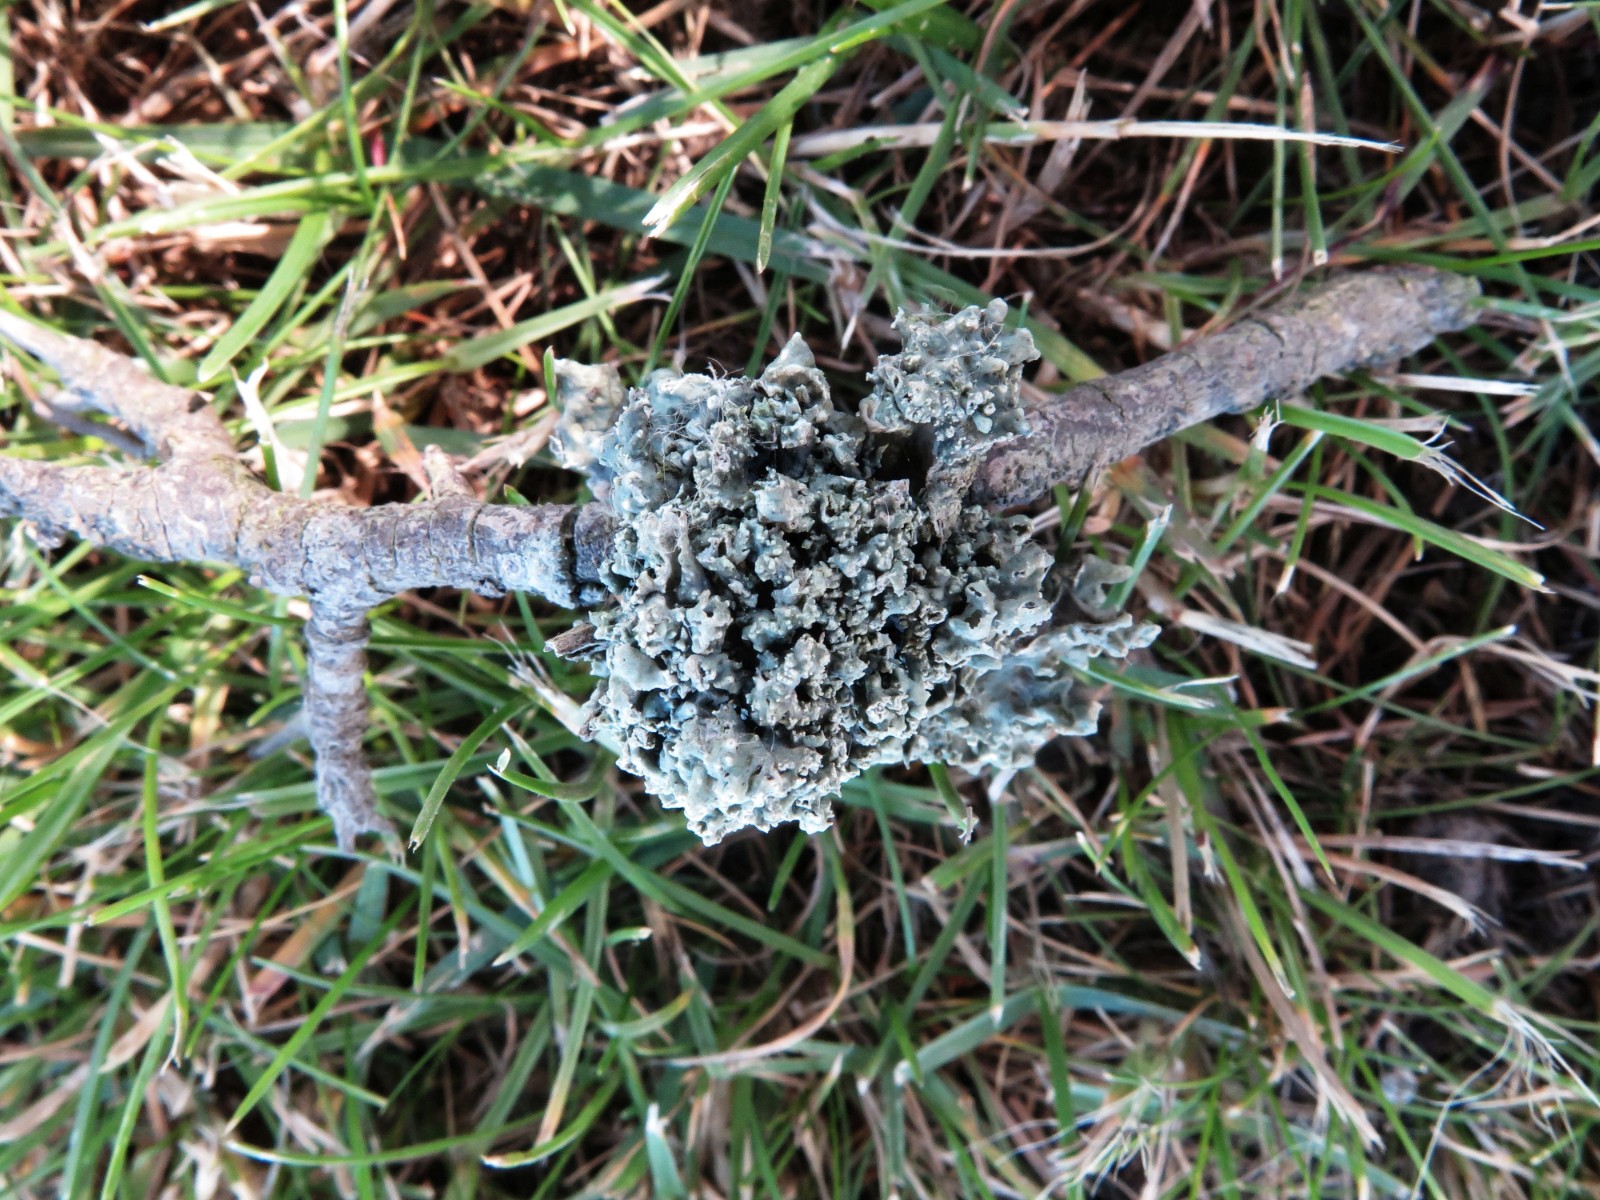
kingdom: Fungi
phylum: Ascomycota
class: Lecanoromycetes
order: Lecanorales
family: Parmeliaceae
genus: Hypogymnia
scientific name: Hypogymnia physodes
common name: almindelig kvistlav
